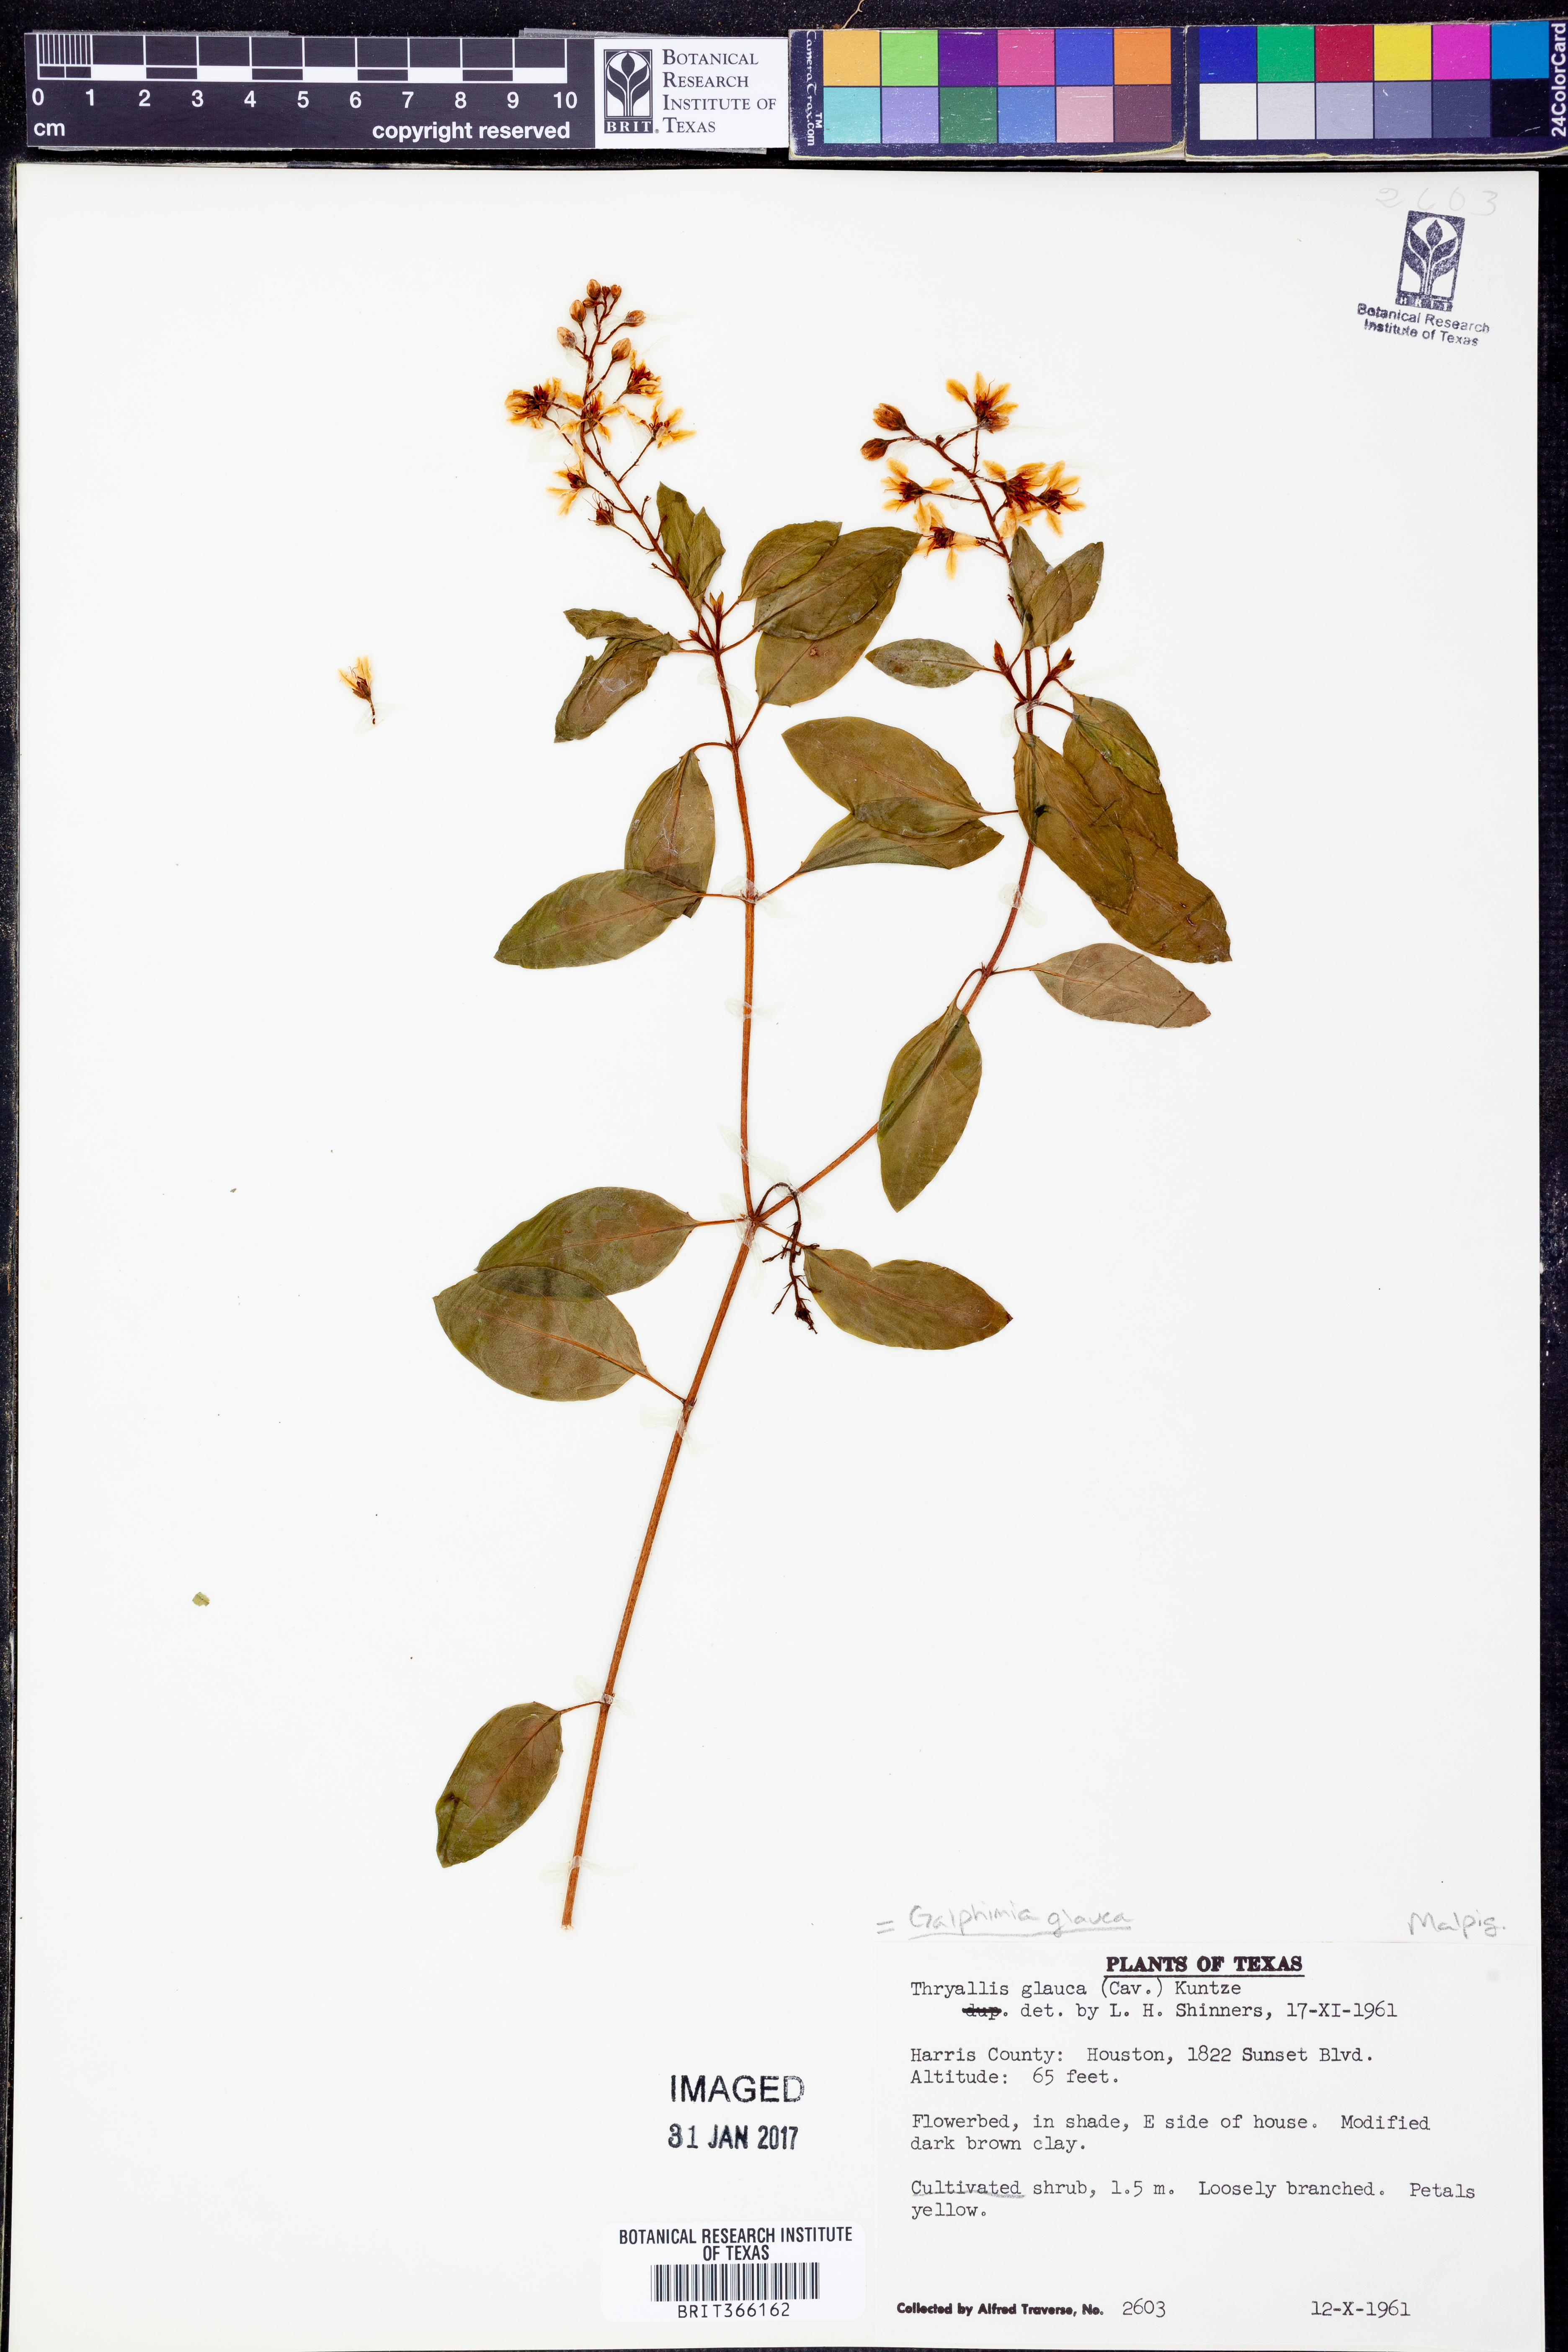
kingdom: Plantae
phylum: Tracheophyta
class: Magnoliopsida
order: Malpighiales
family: Malpighiaceae
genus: Galphimia
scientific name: Galphimia angustifolia
